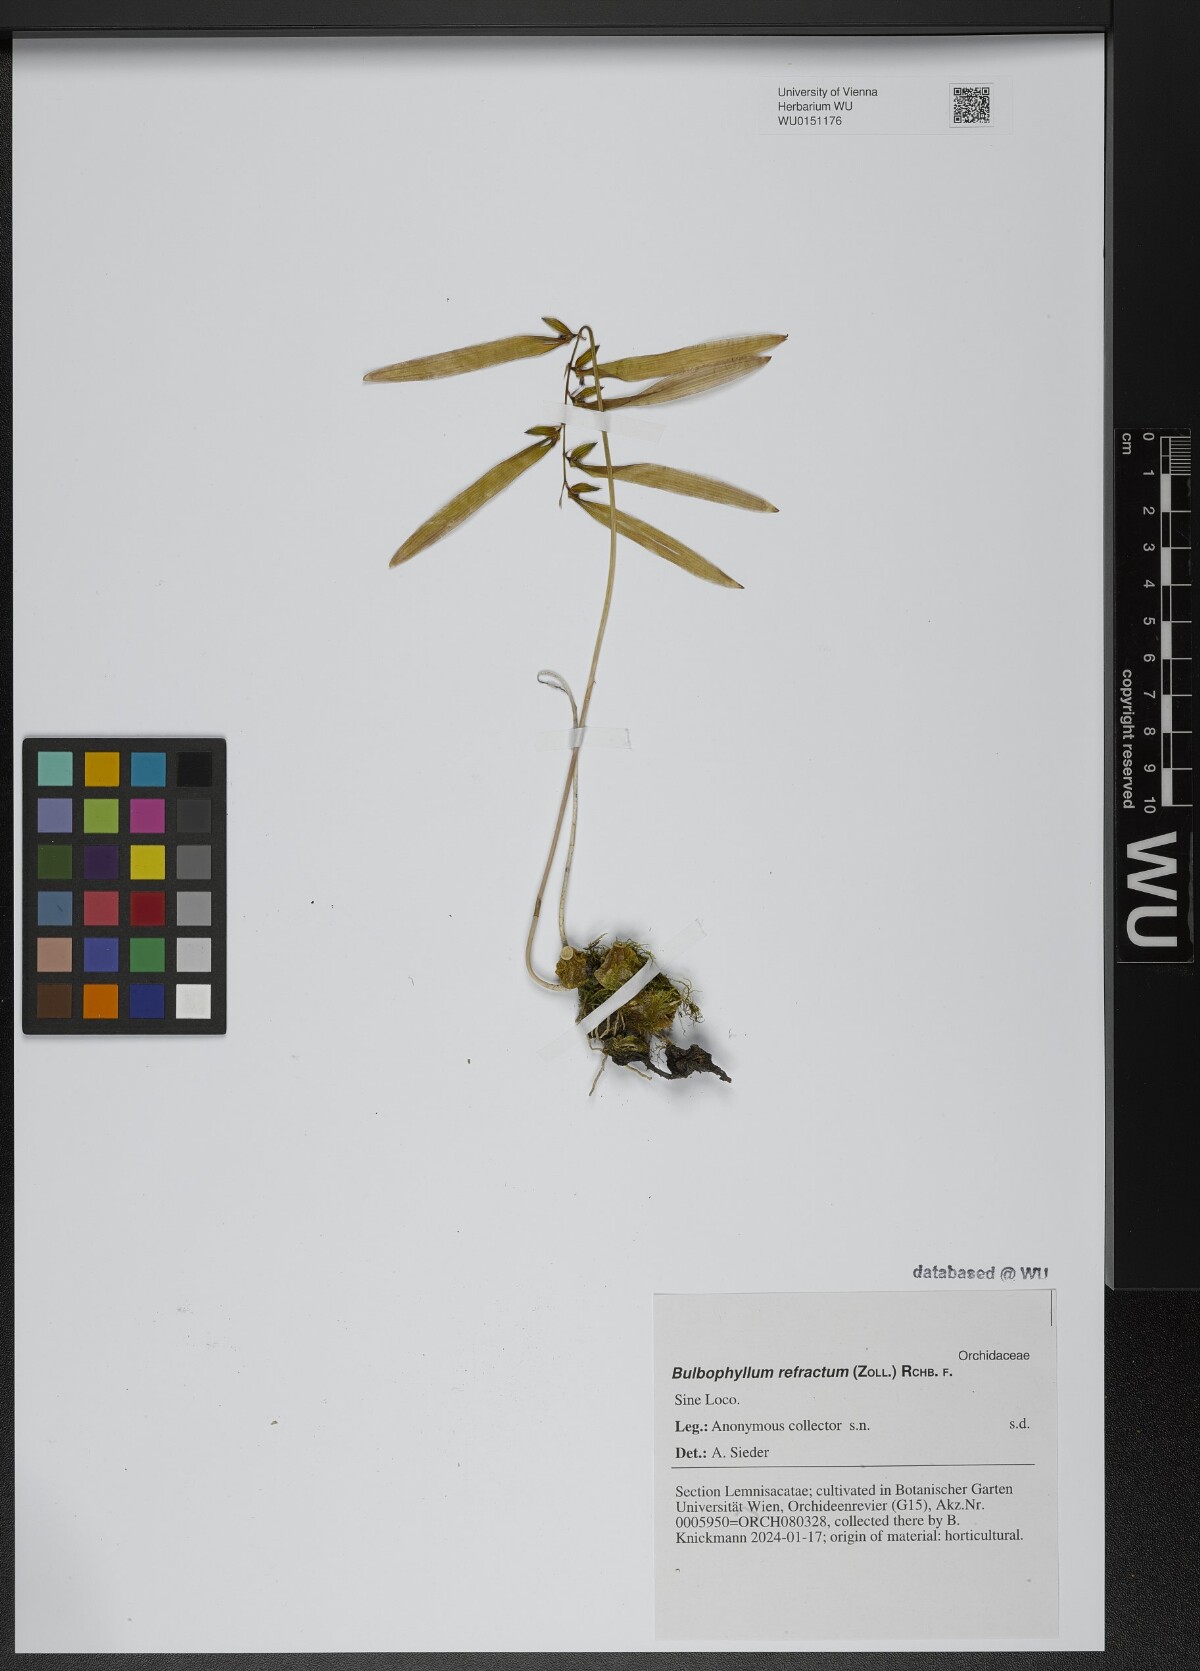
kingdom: Plantae
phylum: Tracheophyta
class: Liliopsida
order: Asparagales
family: Orchidaceae
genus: Bulbophyllum
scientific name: Bulbophyllum refractum
